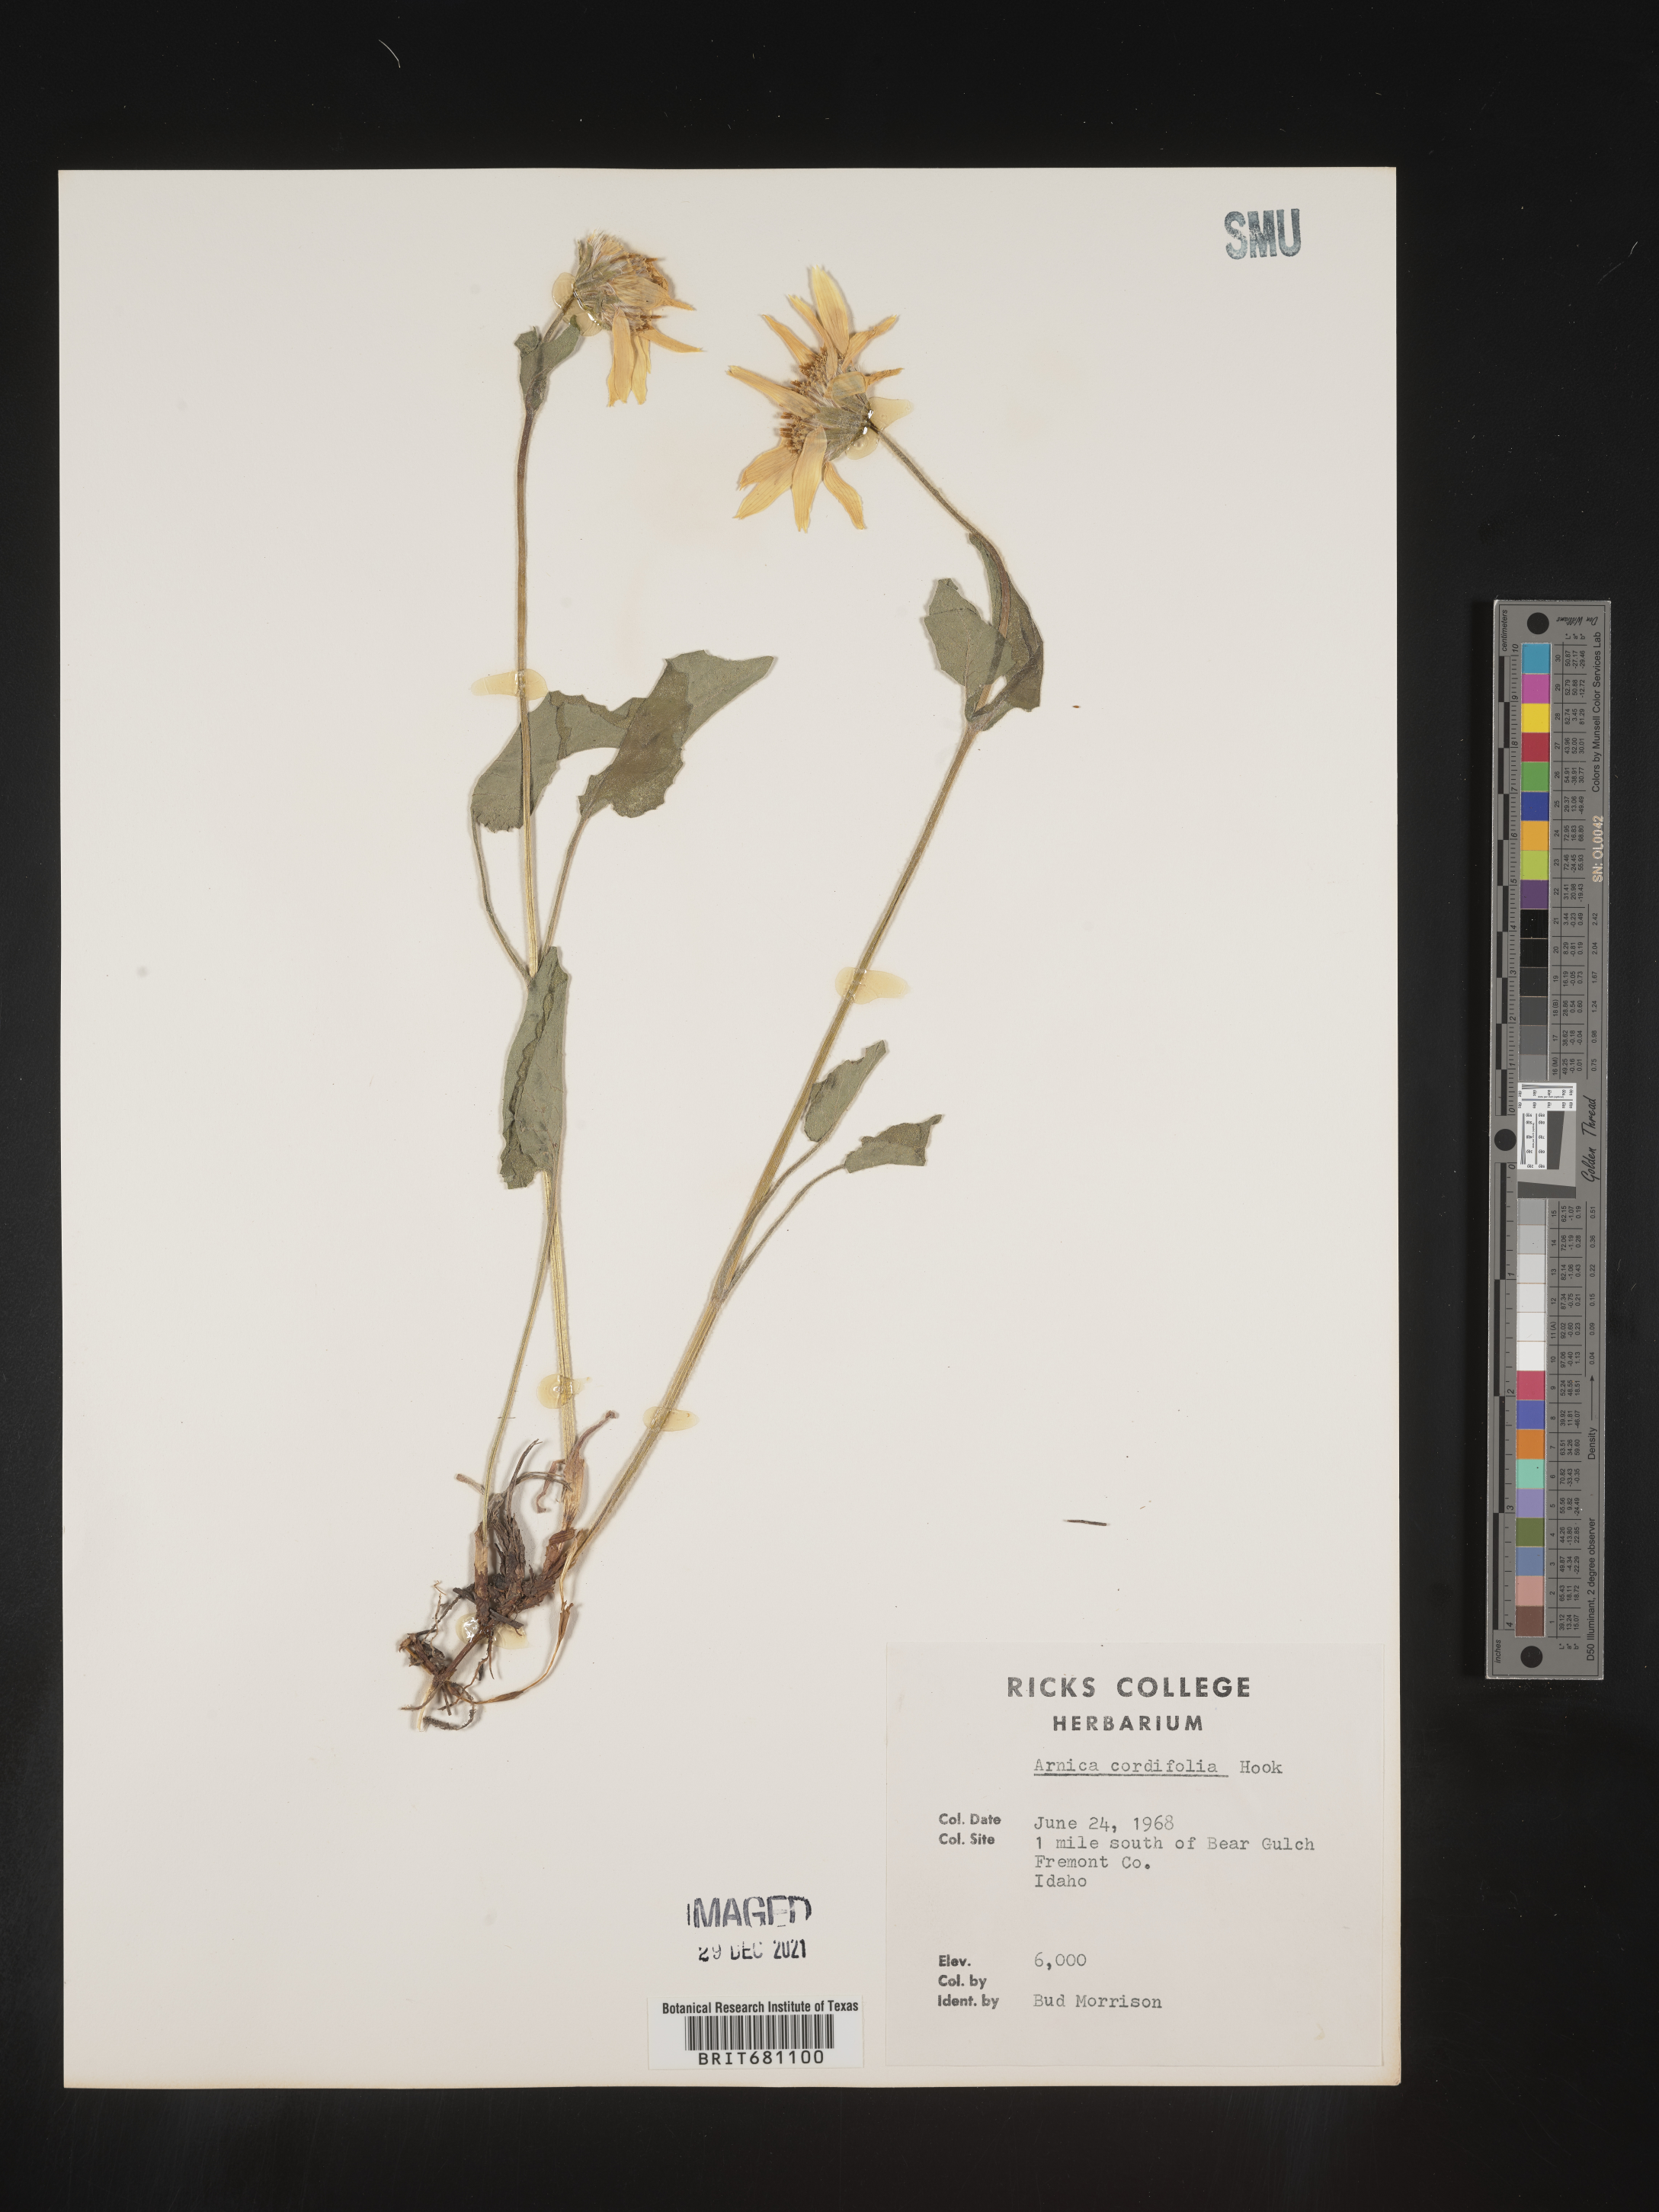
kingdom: Plantae
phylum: Tracheophyta
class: Magnoliopsida
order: Asterales
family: Asteraceae
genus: Arnica
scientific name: Arnica cordifolia
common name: Heart-leaf arnica
